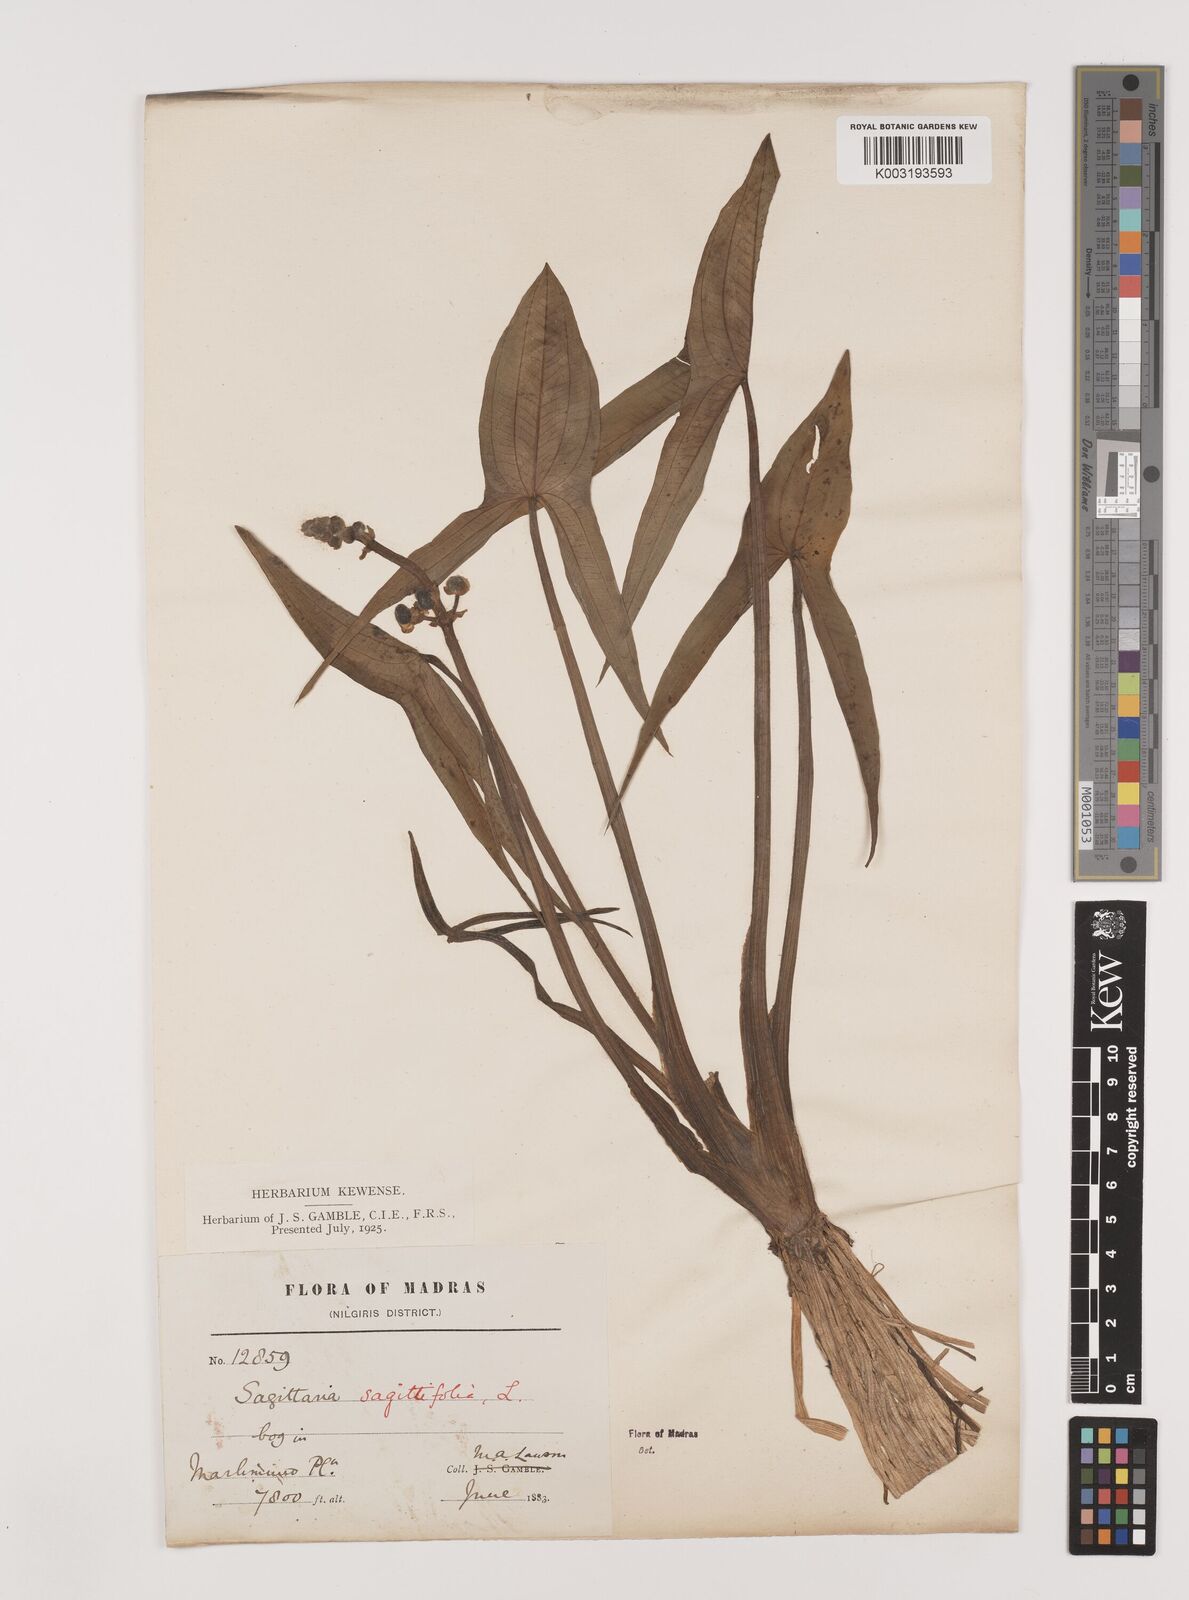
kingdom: Plantae
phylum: Tracheophyta
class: Liliopsida
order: Alismatales
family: Alismataceae
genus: Sagittaria
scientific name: Sagittaria sagittifolia
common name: Arrowhead
